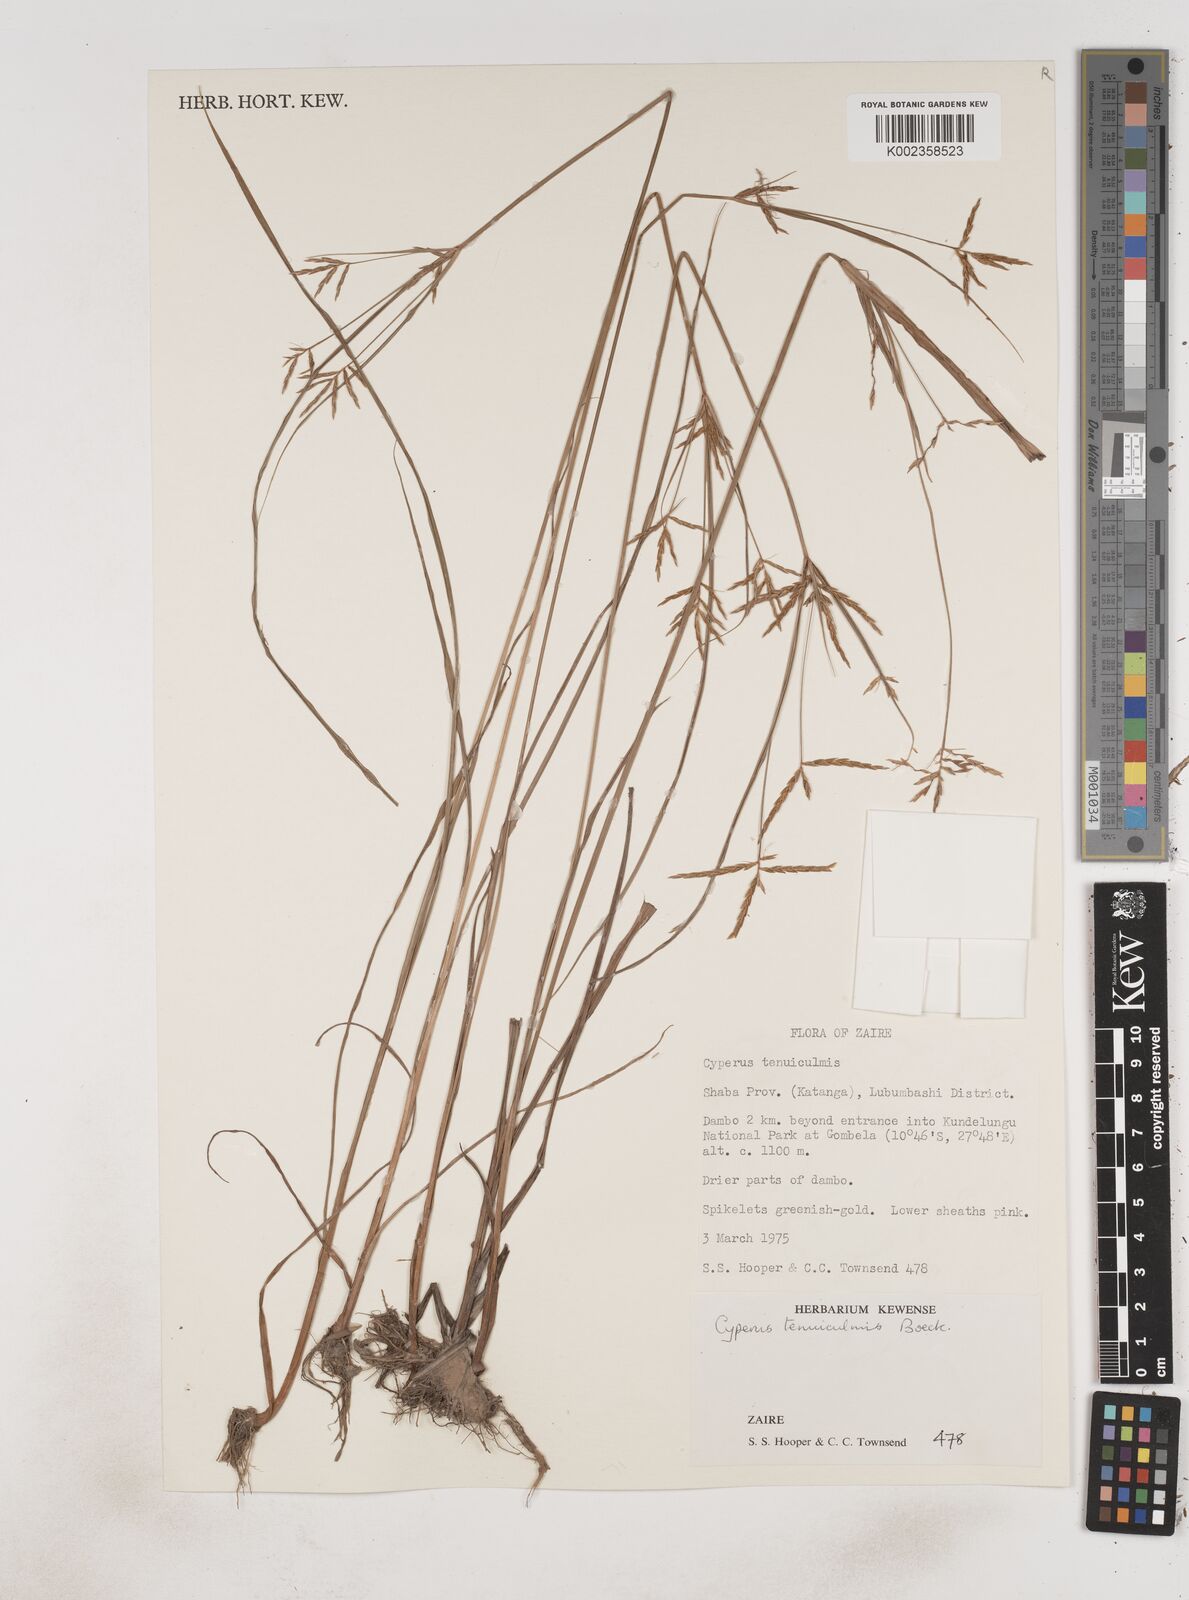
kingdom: Plantae
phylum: Tracheophyta
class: Liliopsida
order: Poales
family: Cyperaceae
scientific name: Cyperaceae
